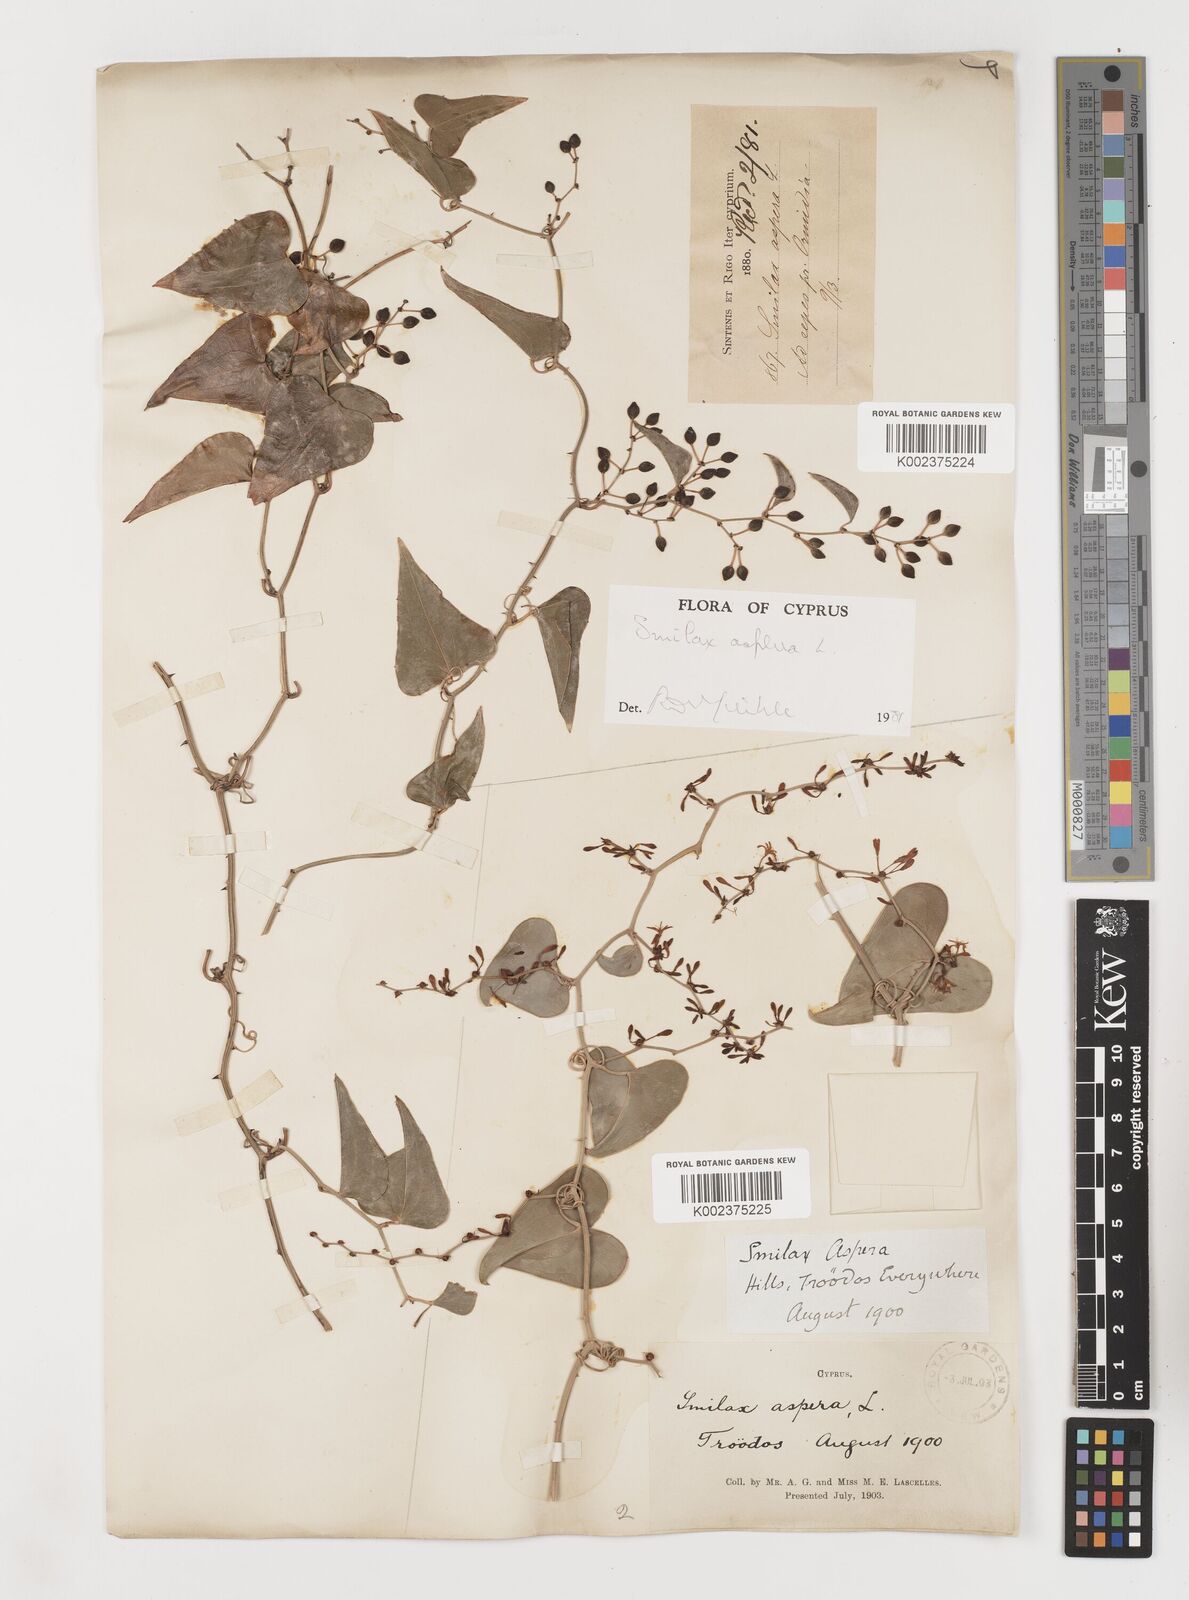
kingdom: Plantae
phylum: Tracheophyta
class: Liliopsida
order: Liliales
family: Smilacaceae
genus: Smilax
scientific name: Smilax aspera
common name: Common smilax
